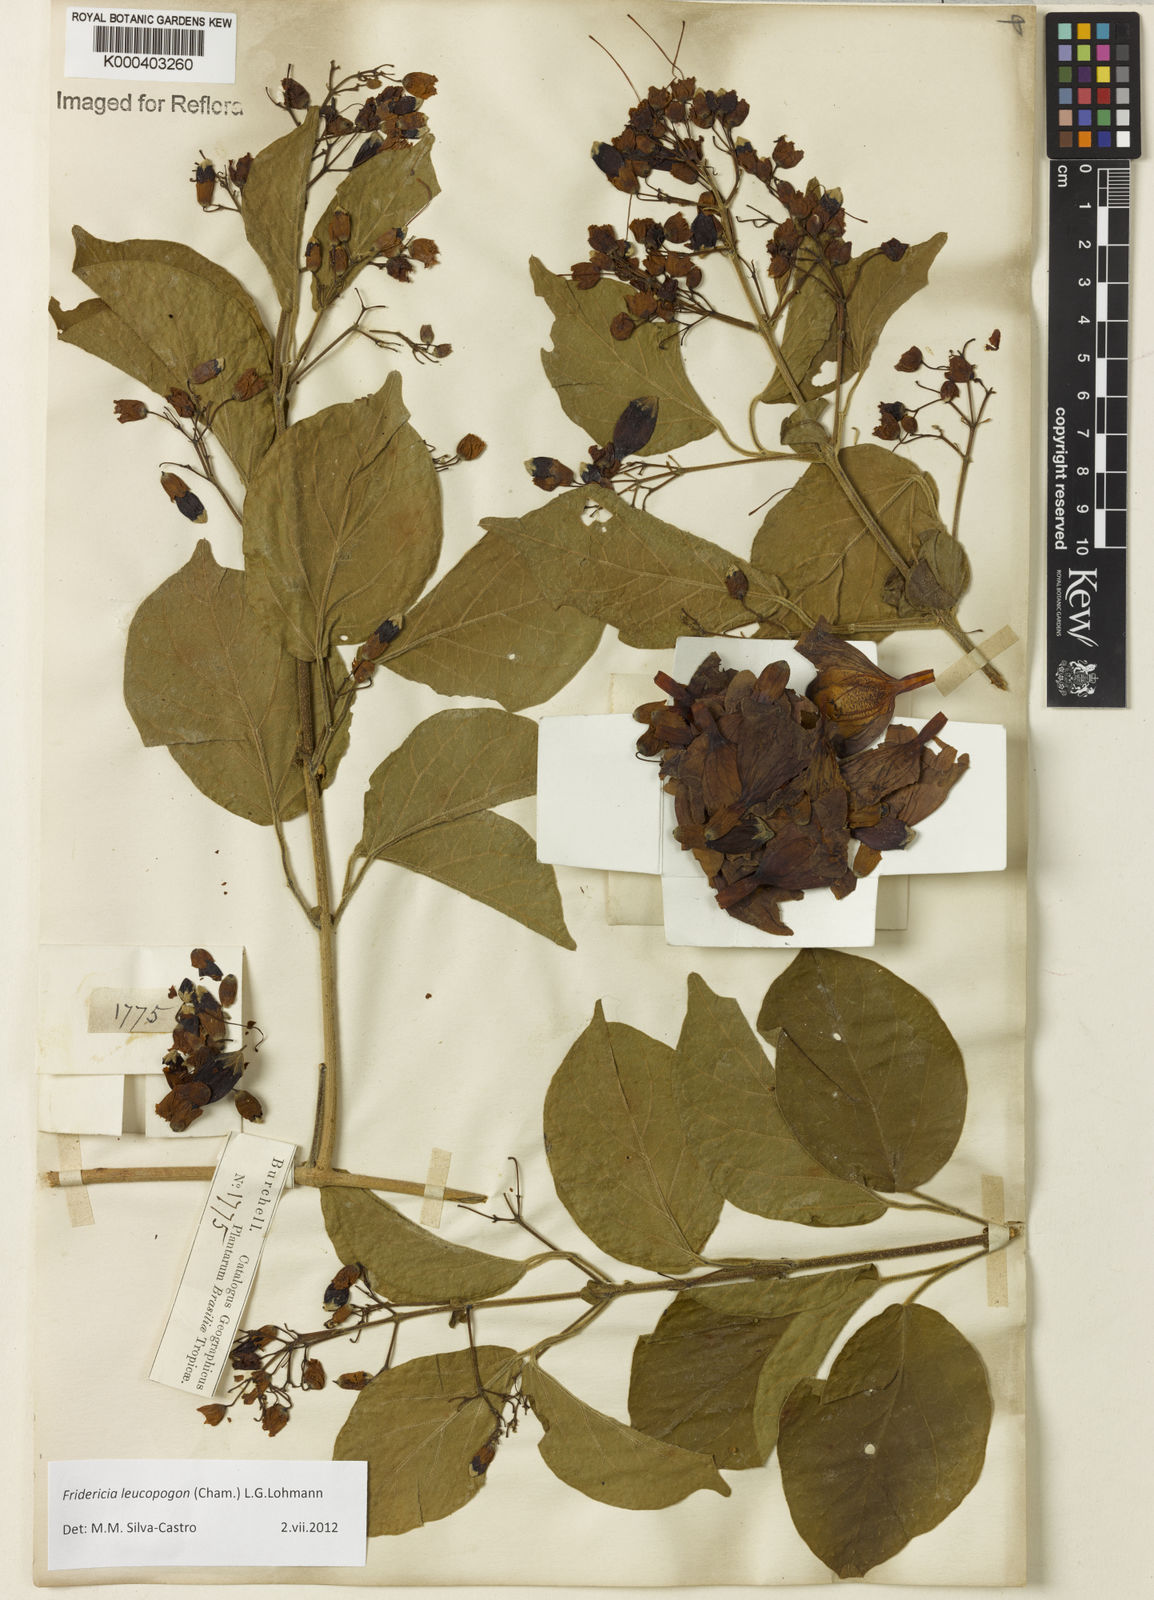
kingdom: Plantae
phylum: Tracheophyta
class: Magnoliopsida
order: Lamiales
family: Bignoniaceae
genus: Fridericia
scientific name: Fridericia leucopogon
